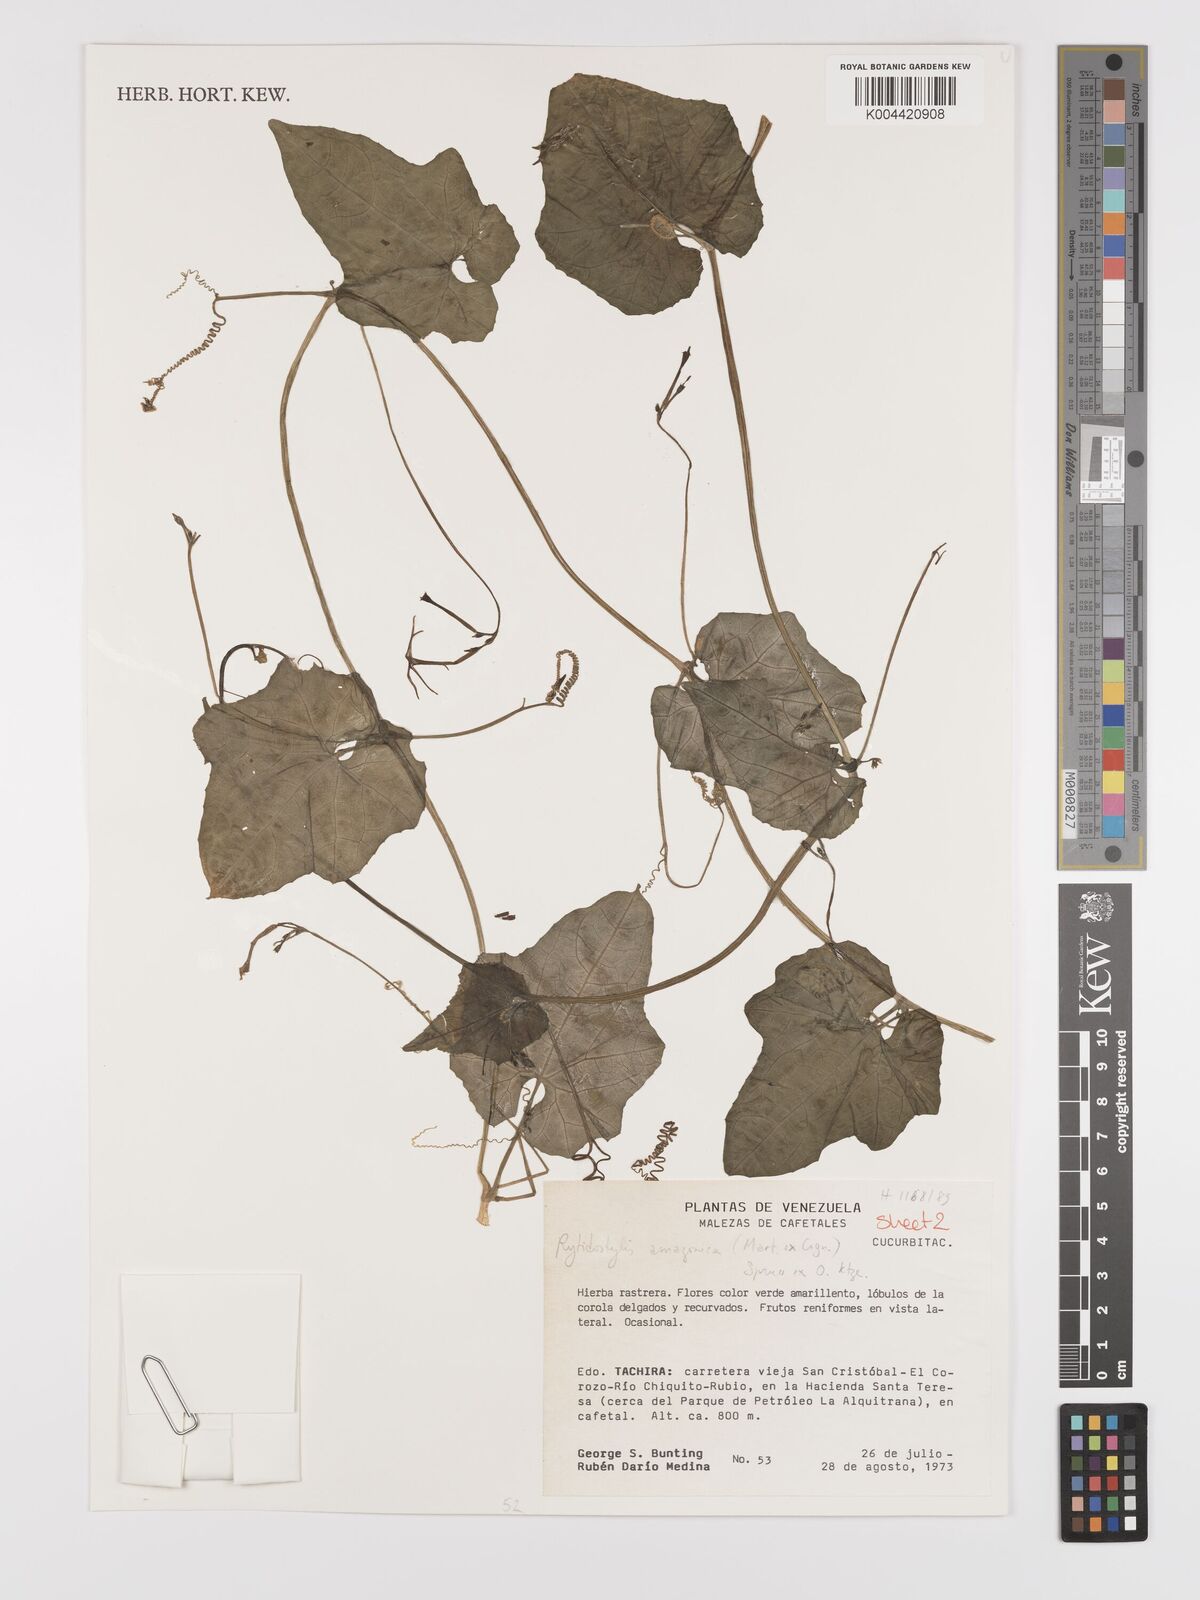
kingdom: Plantae
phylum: Tracheophyta
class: Magnoliopsida
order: Cucurbitales
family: Cucurbitaceae
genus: Cyclanthera
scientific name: Cyclanthera carthagenensis
